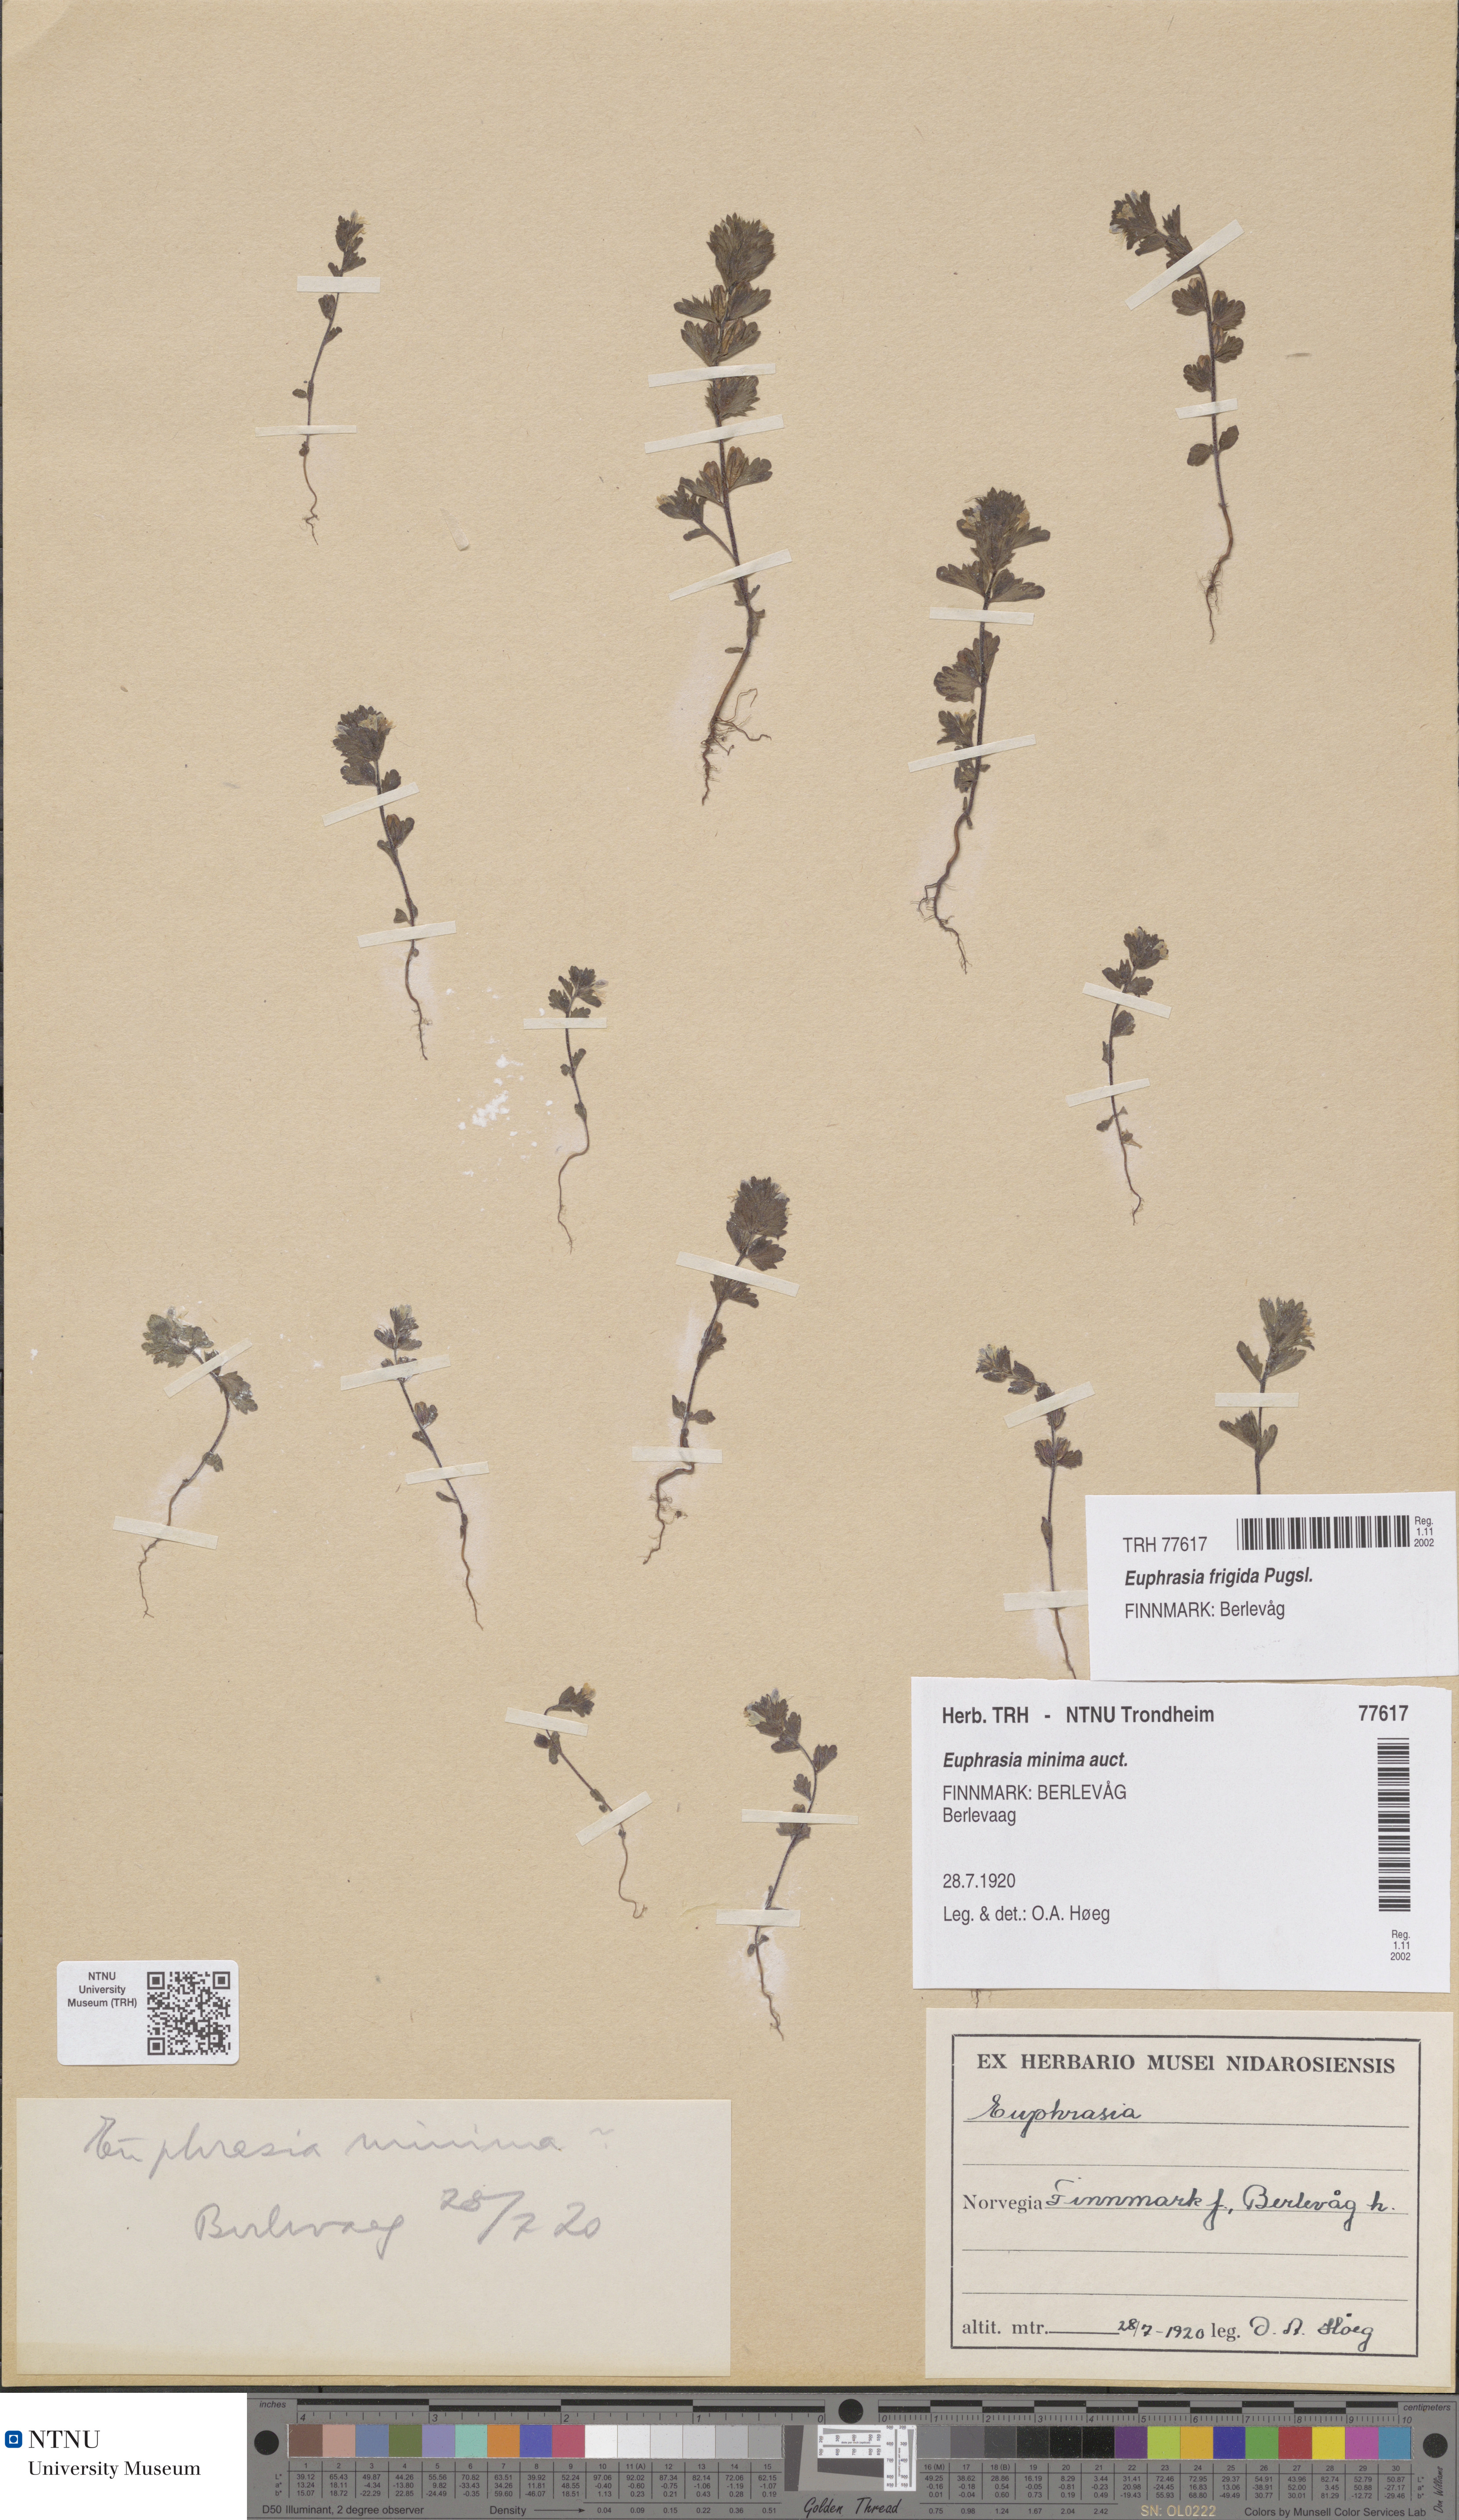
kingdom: Plantae
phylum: Tracheophyta
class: Magnoliopsida
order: Lamiales
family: Orobanchaceae
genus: Euphrasia
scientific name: Euphrasia wettsteinii
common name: Wettstein's eyebright
